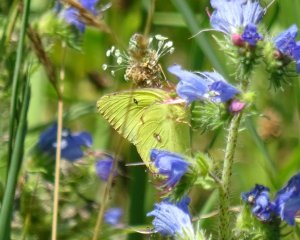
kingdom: Animalia
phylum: Arthropoda
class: Insecta
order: Lepidoptera
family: Pieridae
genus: Colias
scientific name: Colias philodice
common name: Clouded Sulphur
